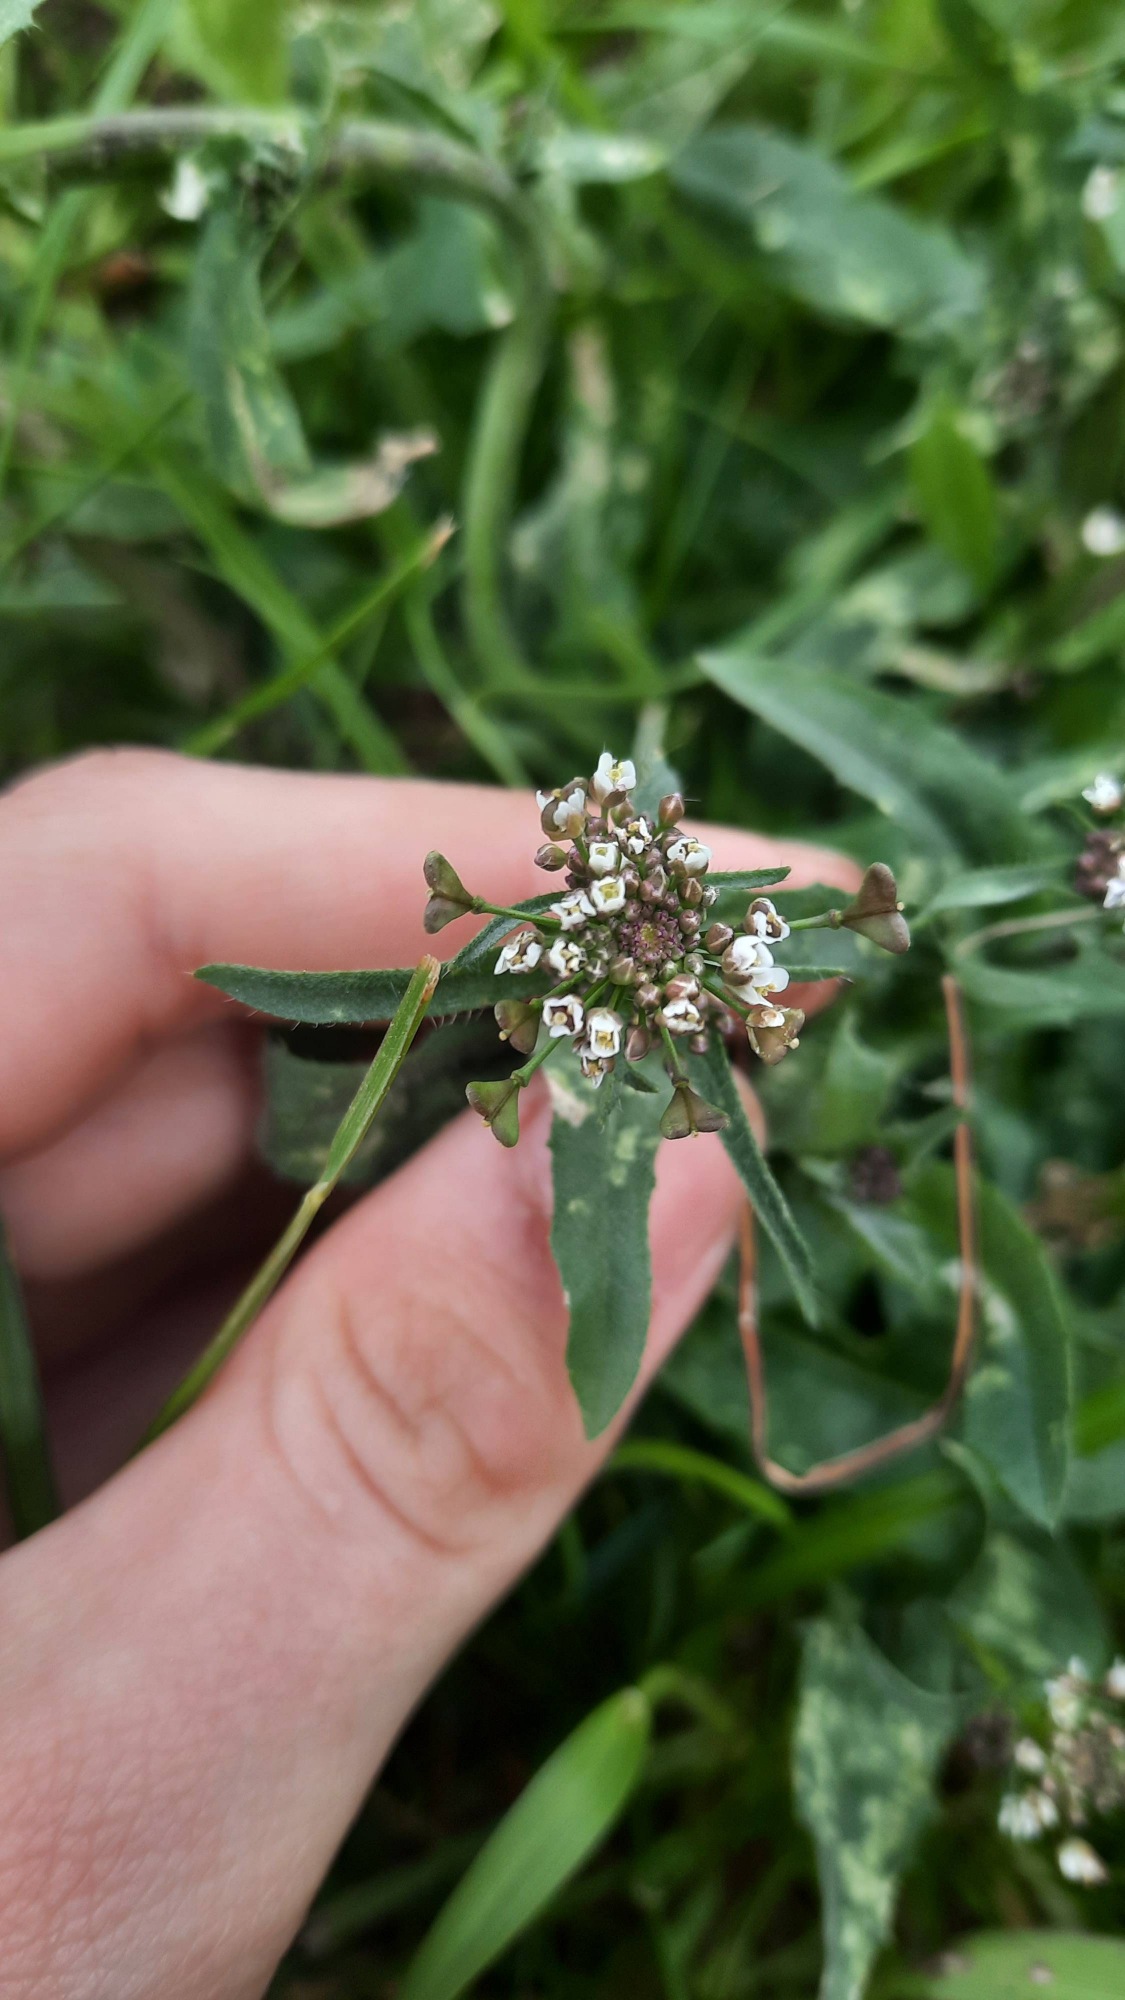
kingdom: Plantae
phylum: Tracheophyta
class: Magnoliopsida
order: Brassicales
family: Brassicaceae
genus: Capsella
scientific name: Capsella bursa-pastoris
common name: Hyrdetaske
